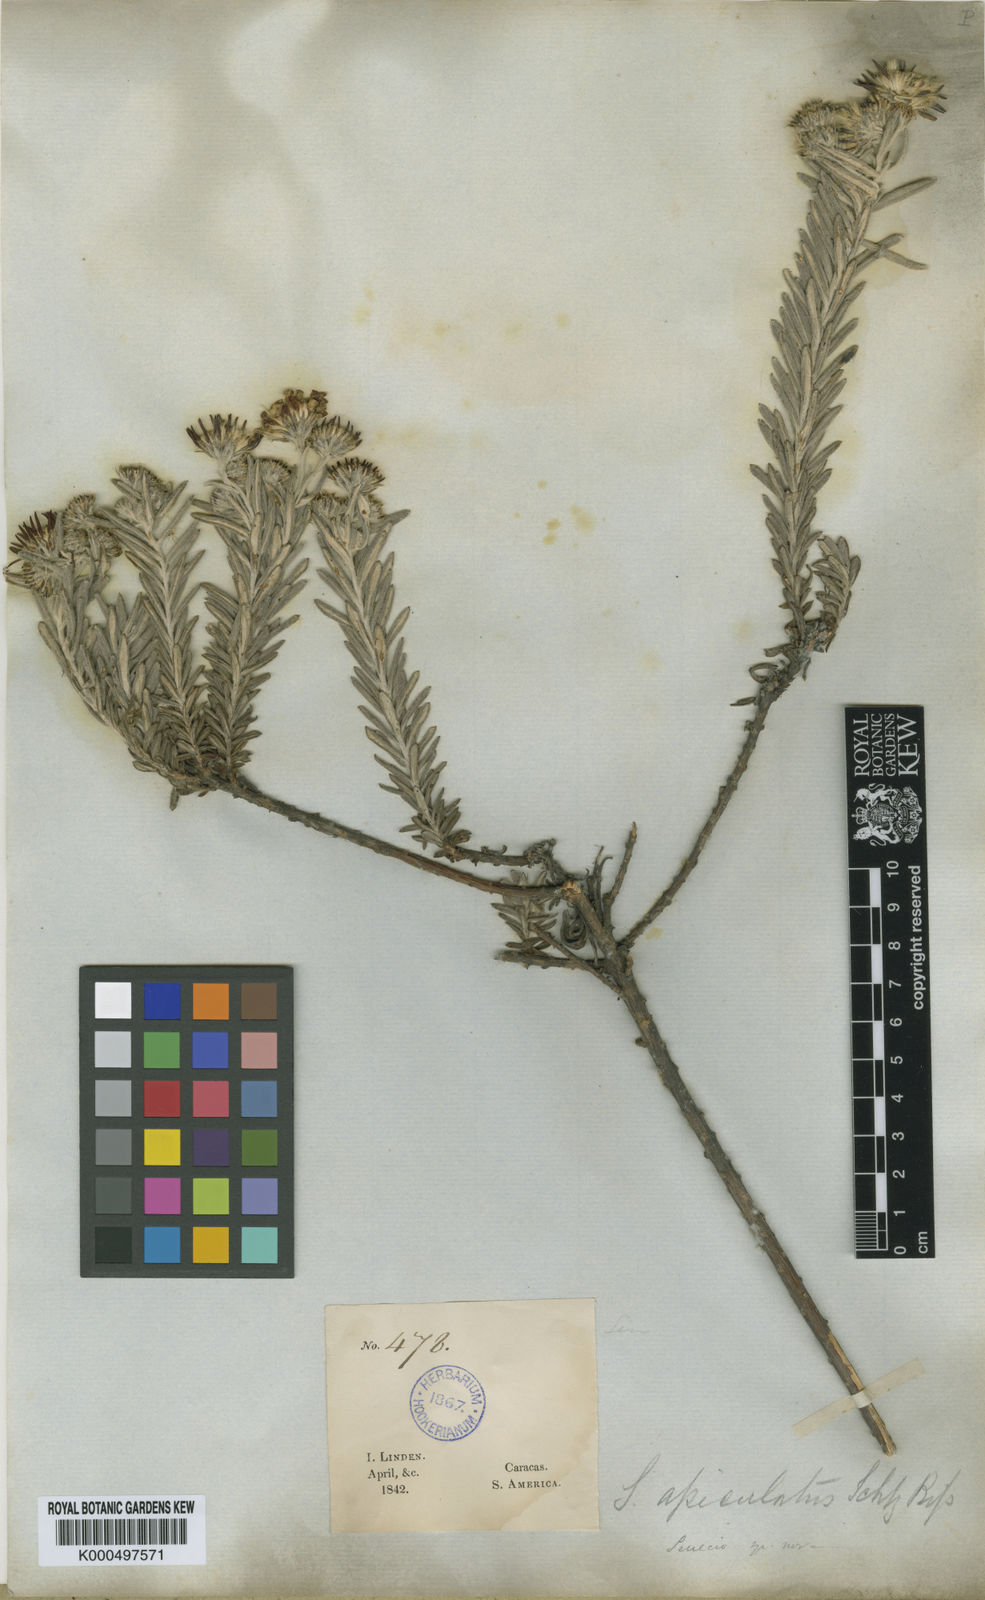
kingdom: Plantae
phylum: Tracheophyta
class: Magnoliopsida
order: Asterales
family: Asteraceae
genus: Monticalia
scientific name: Monticalia apiculata
